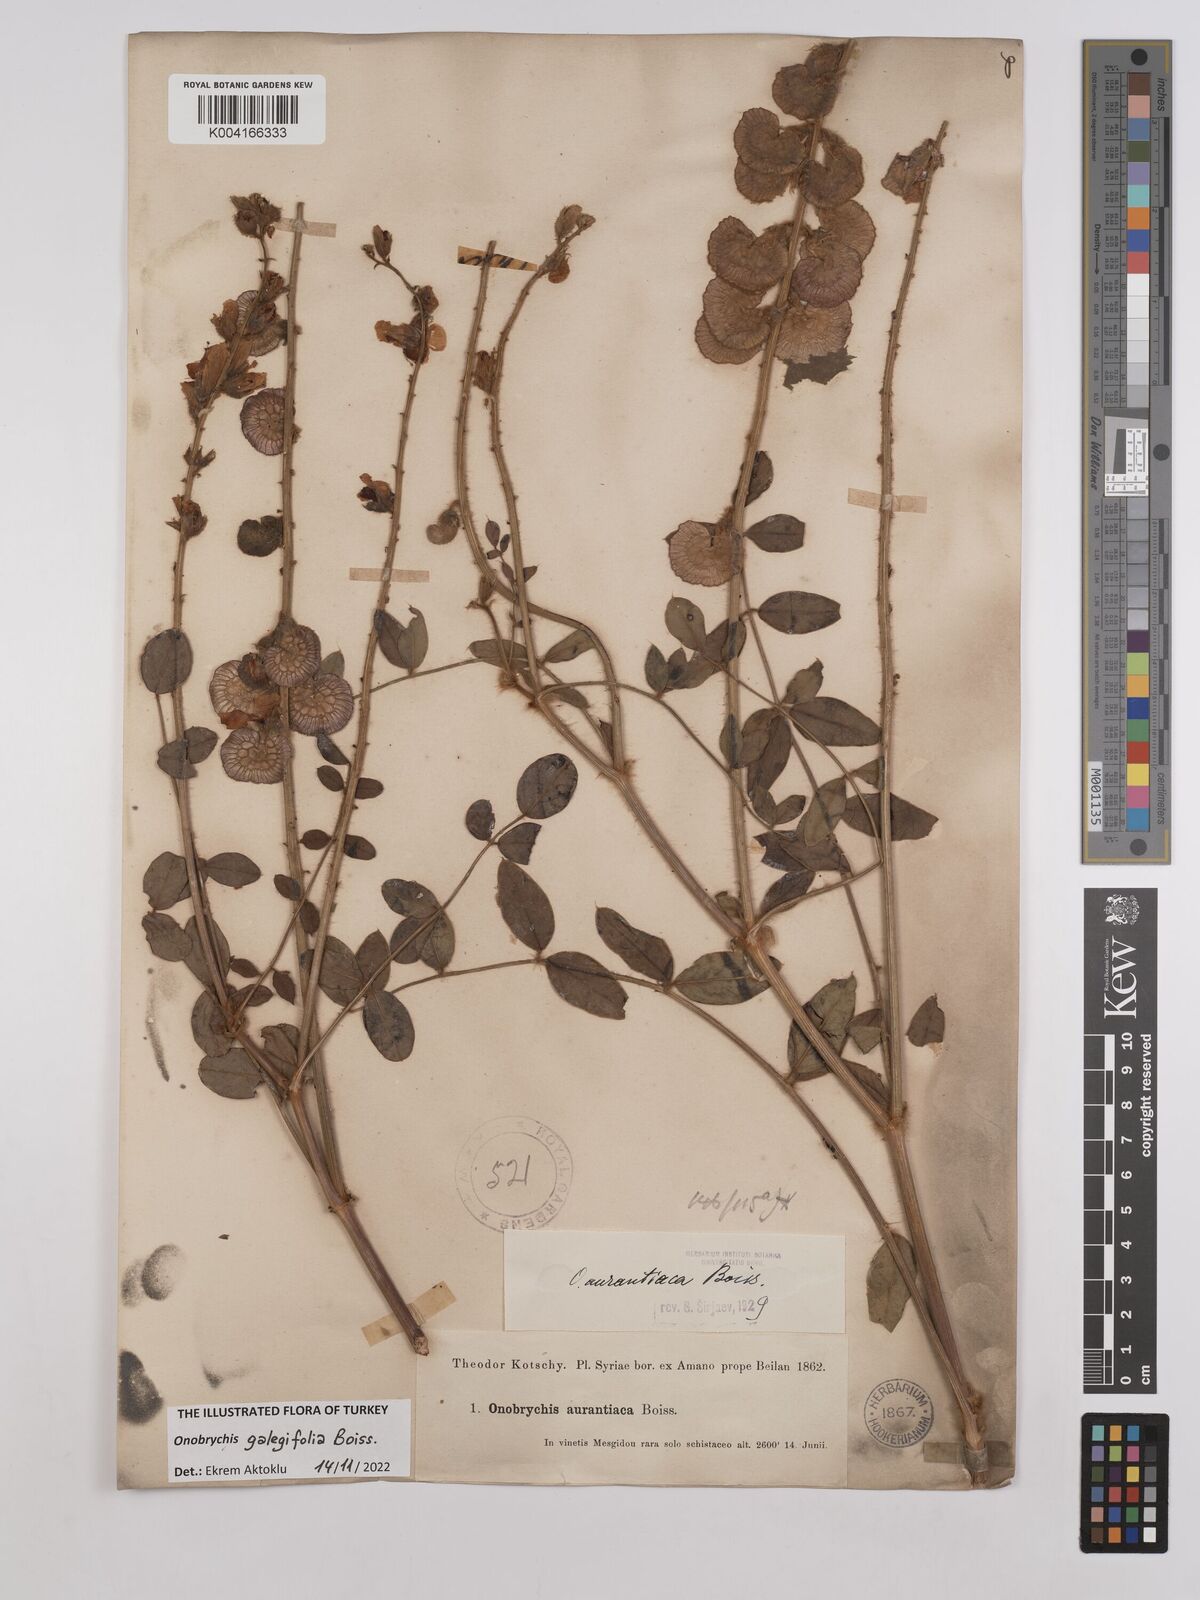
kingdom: Plantae
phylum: Tracheophyta
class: Magnoliopsida
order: Fabales
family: Fabaceae
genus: Onobrychis
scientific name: Onobrychis galegifolia
